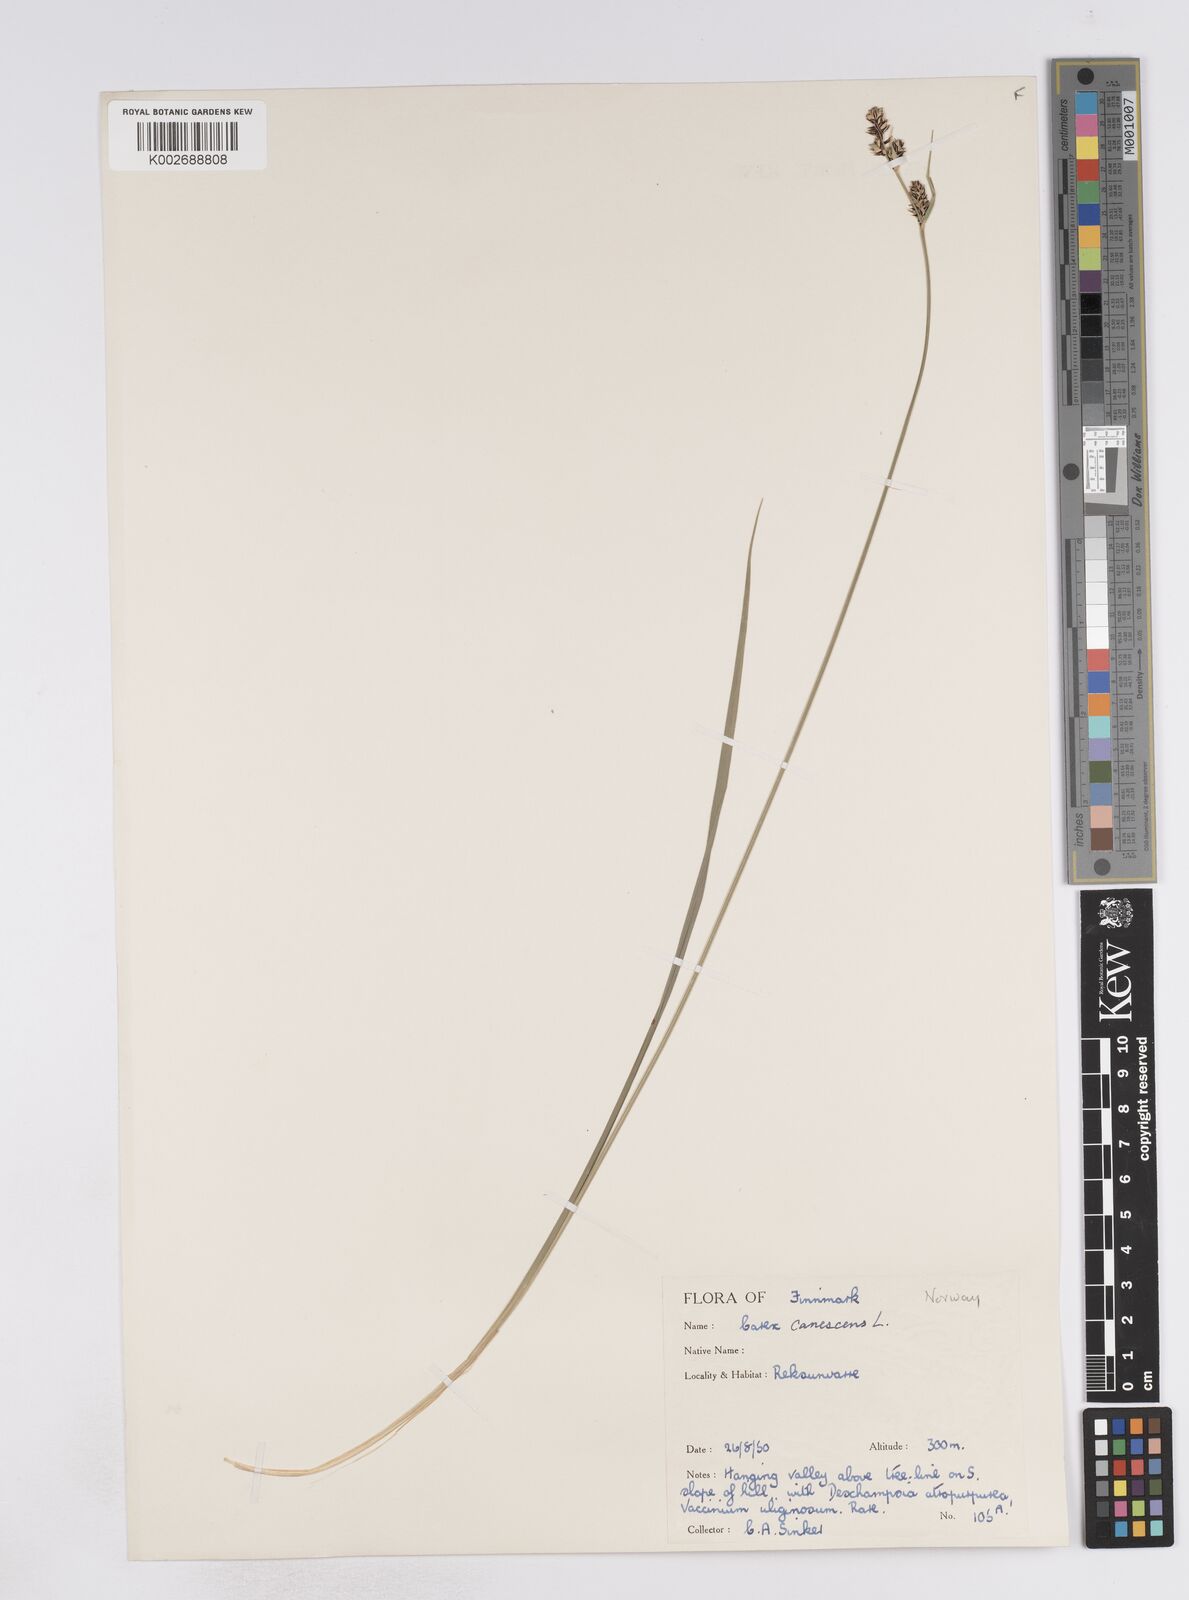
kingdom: Plantae
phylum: Tracheophyta
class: Liliopsida
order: Poales
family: Cyperaceae
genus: Carex
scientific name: Carex buxbaumii
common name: Club sedge
